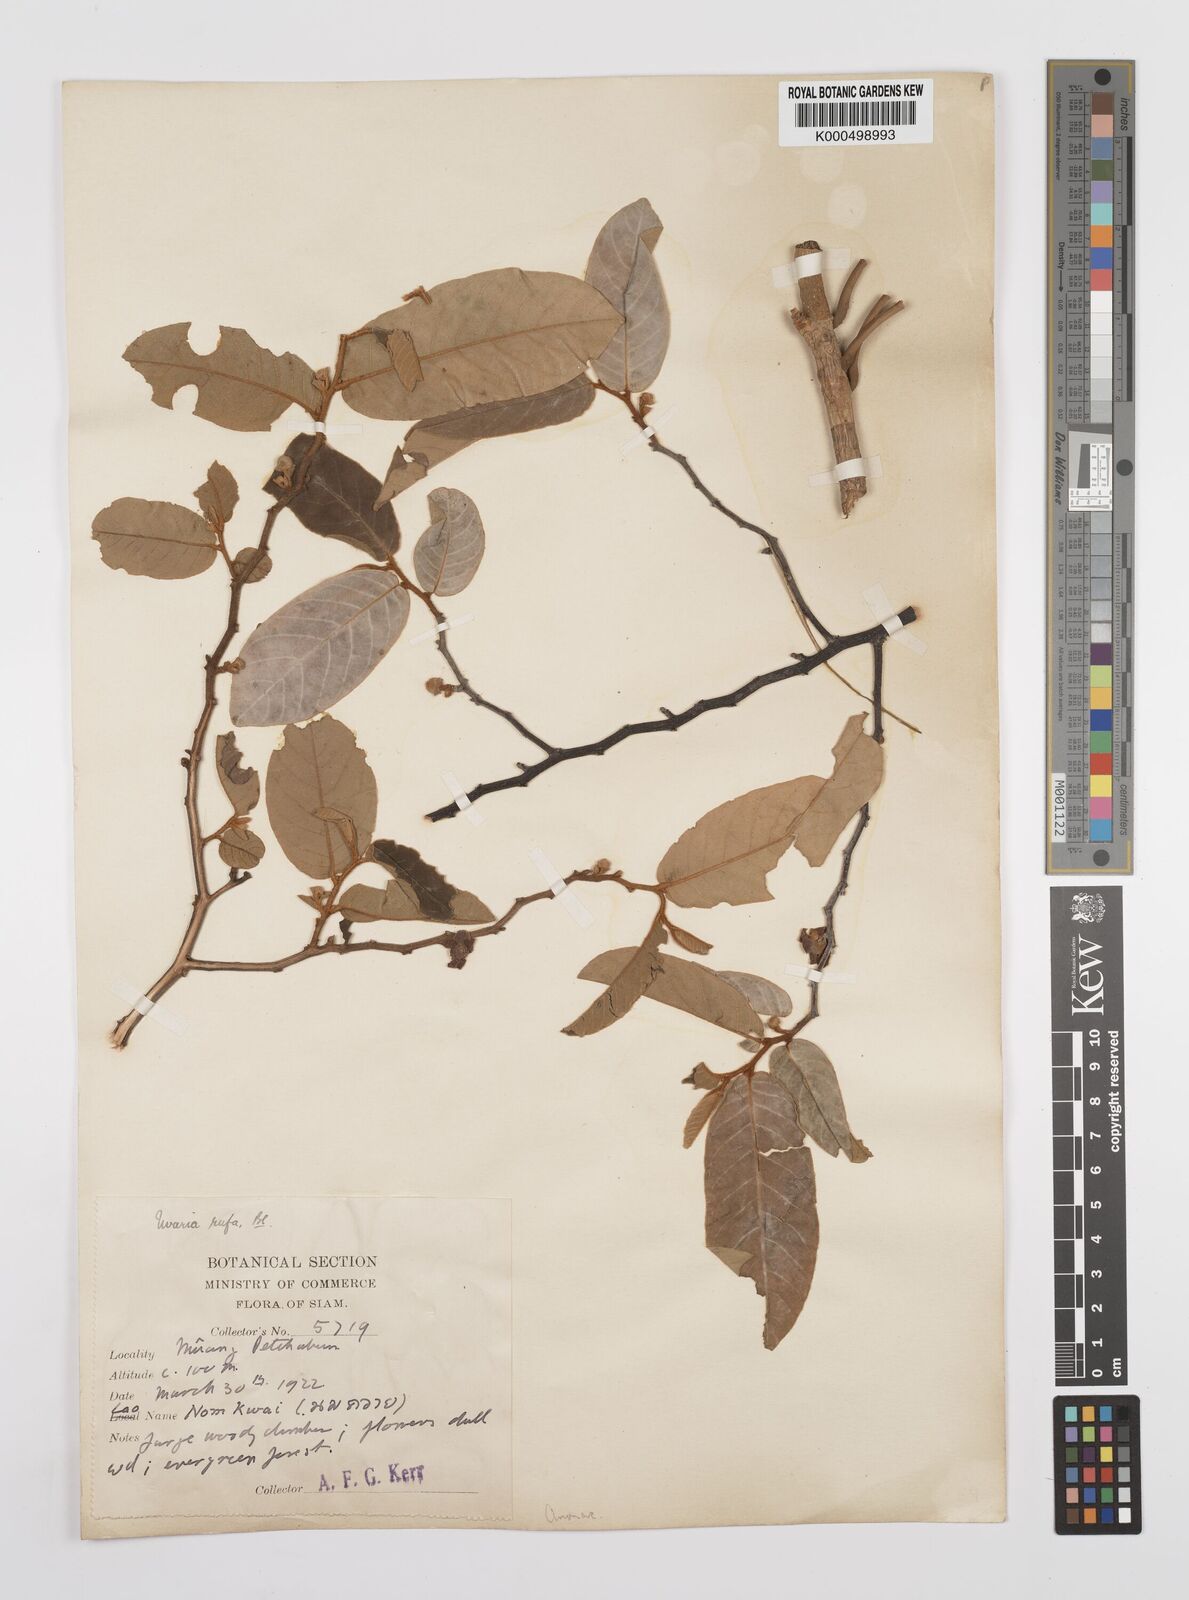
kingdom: Plantae
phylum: Tracheophyta
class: Magnoliopsida
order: Magnoliales
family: Annonaceae
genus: Uvaria
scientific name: Uvaria rufa
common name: Torres strait scrambler
